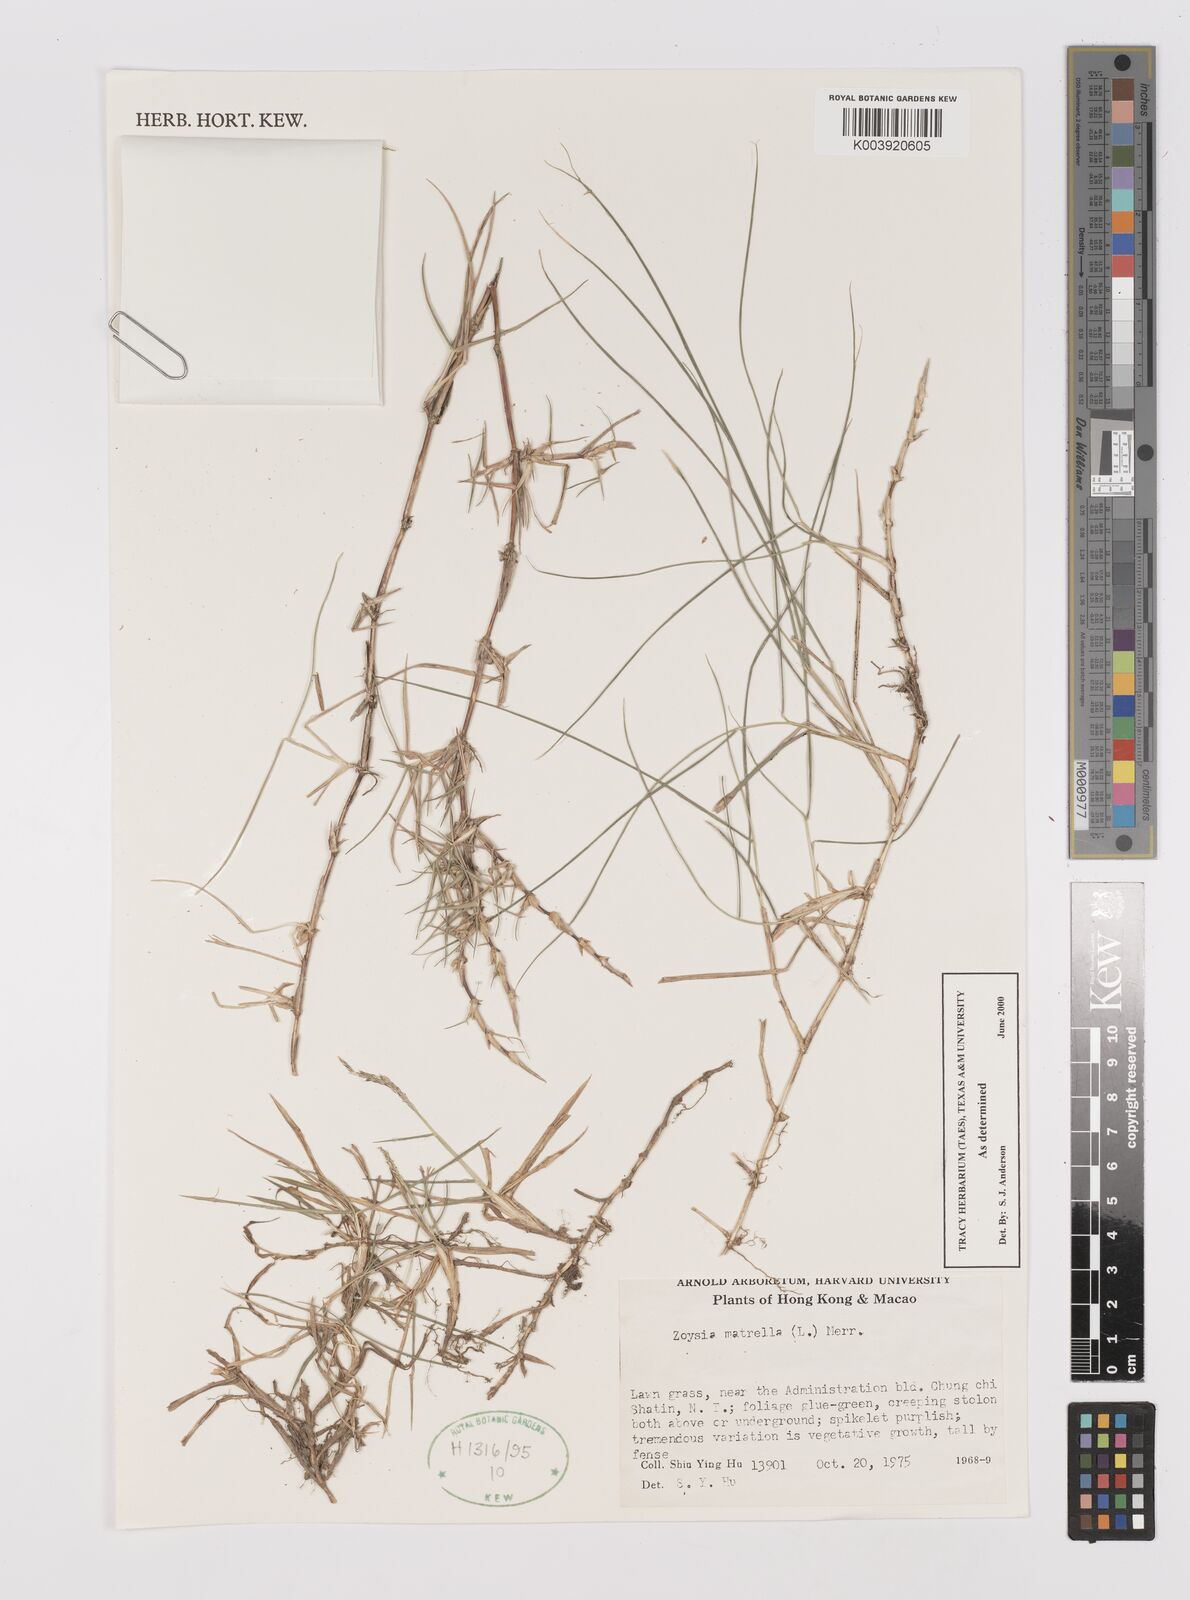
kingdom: Plantae
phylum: Tracheophyta
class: Liliopsida
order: Poales
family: Poaceae
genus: Zoysia
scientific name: Zoysia matrella
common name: Manila grass
